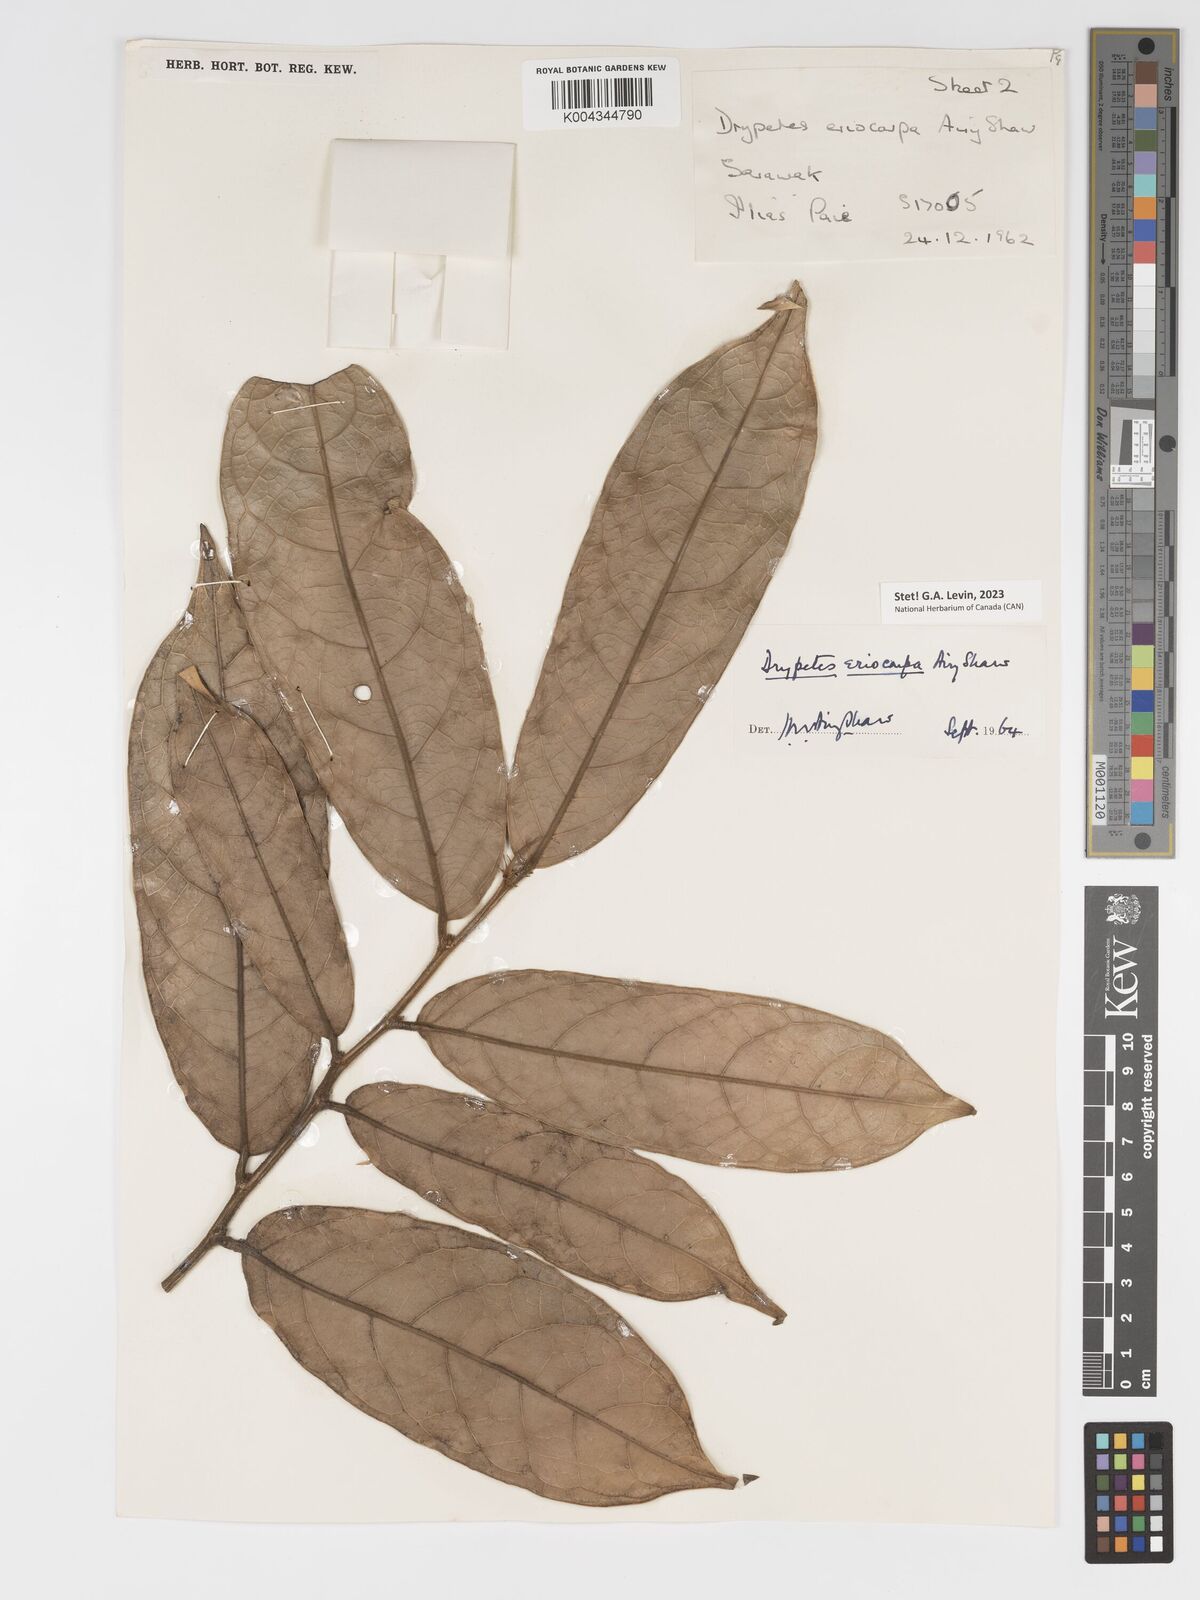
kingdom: Plantae
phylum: Tracheophyta
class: Magnoliopsida
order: Malpighiales
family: Putranjivaceae
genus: Drypetes
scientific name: Drypetes eriocarpa
